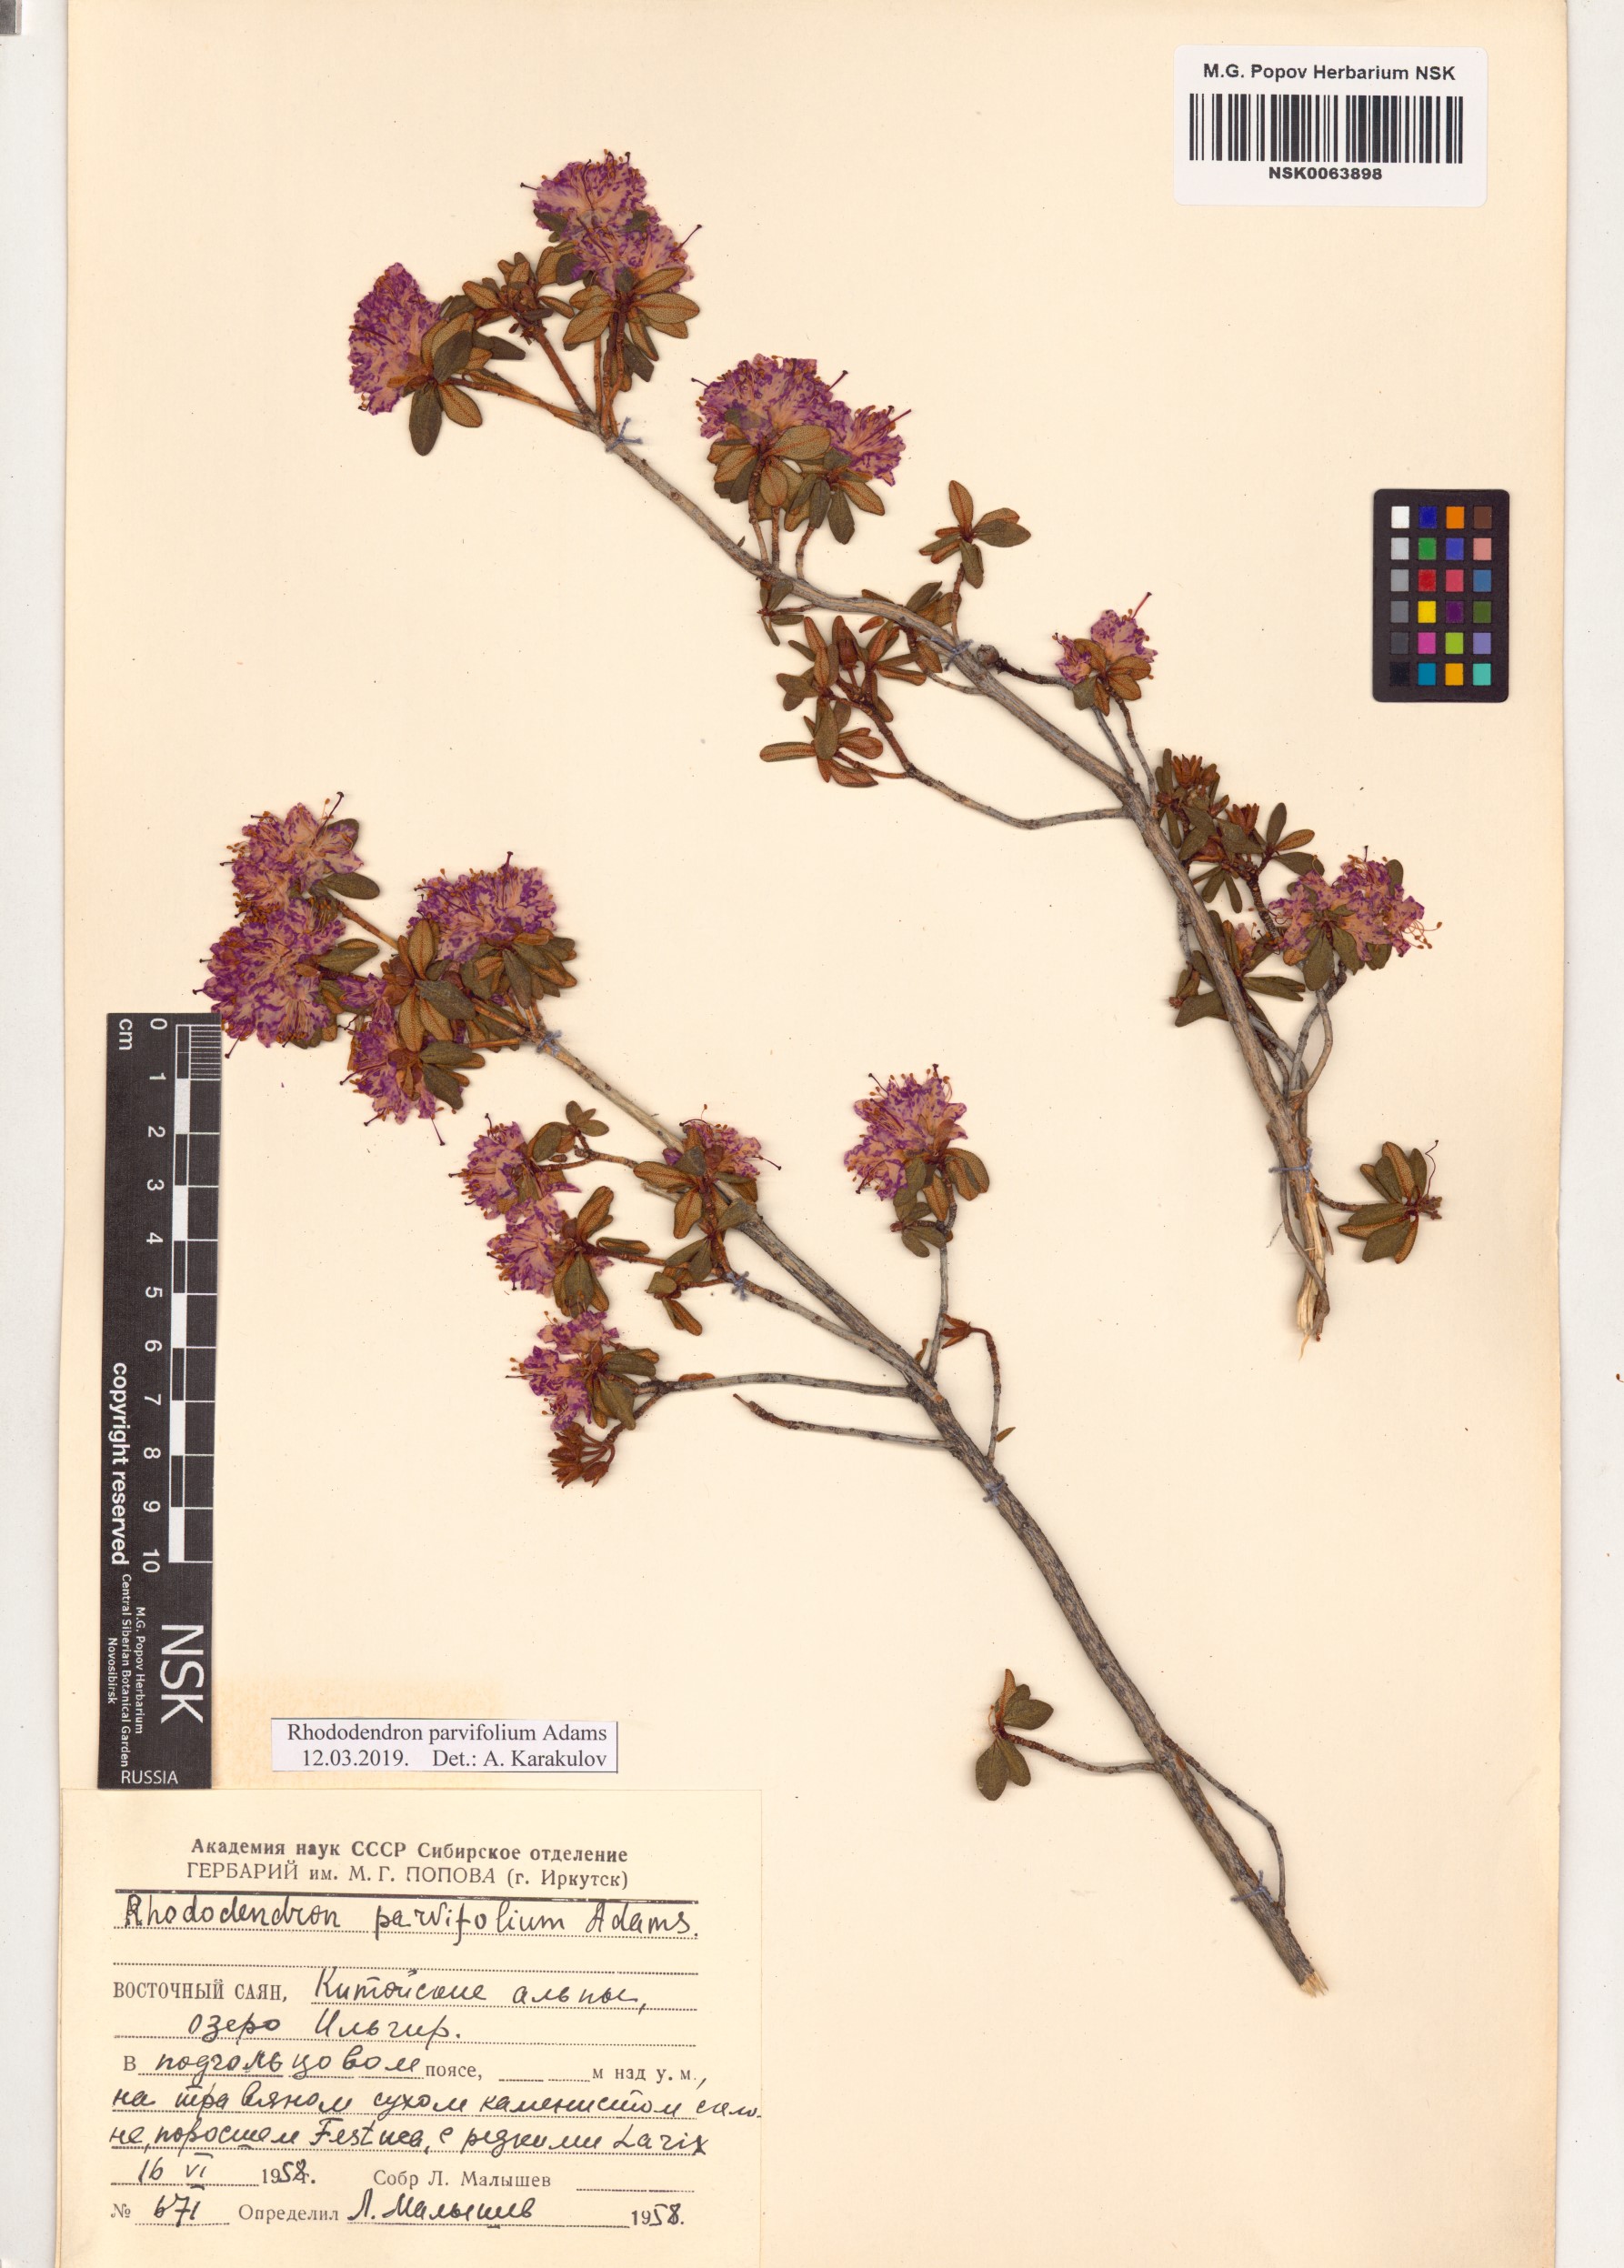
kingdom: Plantae
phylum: Tracheophyta
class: Magnoliopsida
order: Ericales
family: Ericaceae
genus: Rhododendron
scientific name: Rhododendron parvifolium
